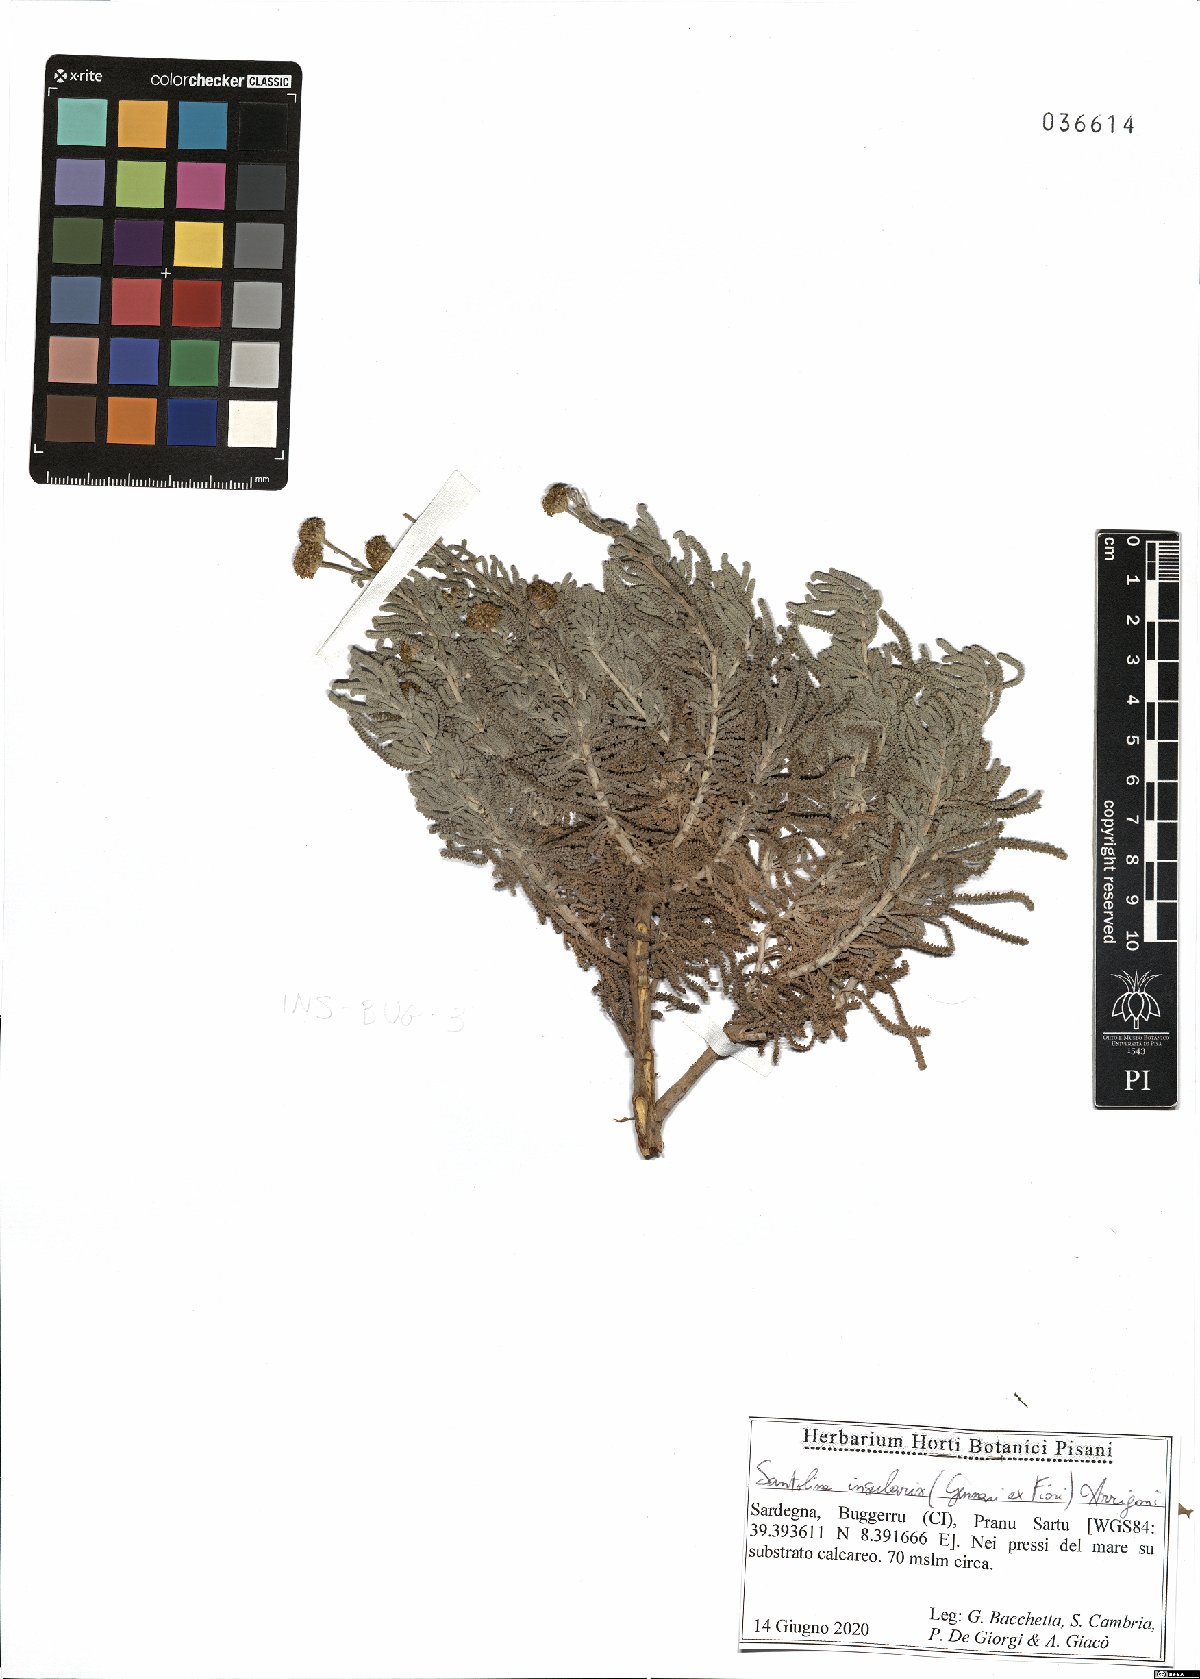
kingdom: Plantae
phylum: Tracheophyta
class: Magnoliopsida
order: Asterales
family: Asteraceae
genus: Santolina
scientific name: Santolina insularis
